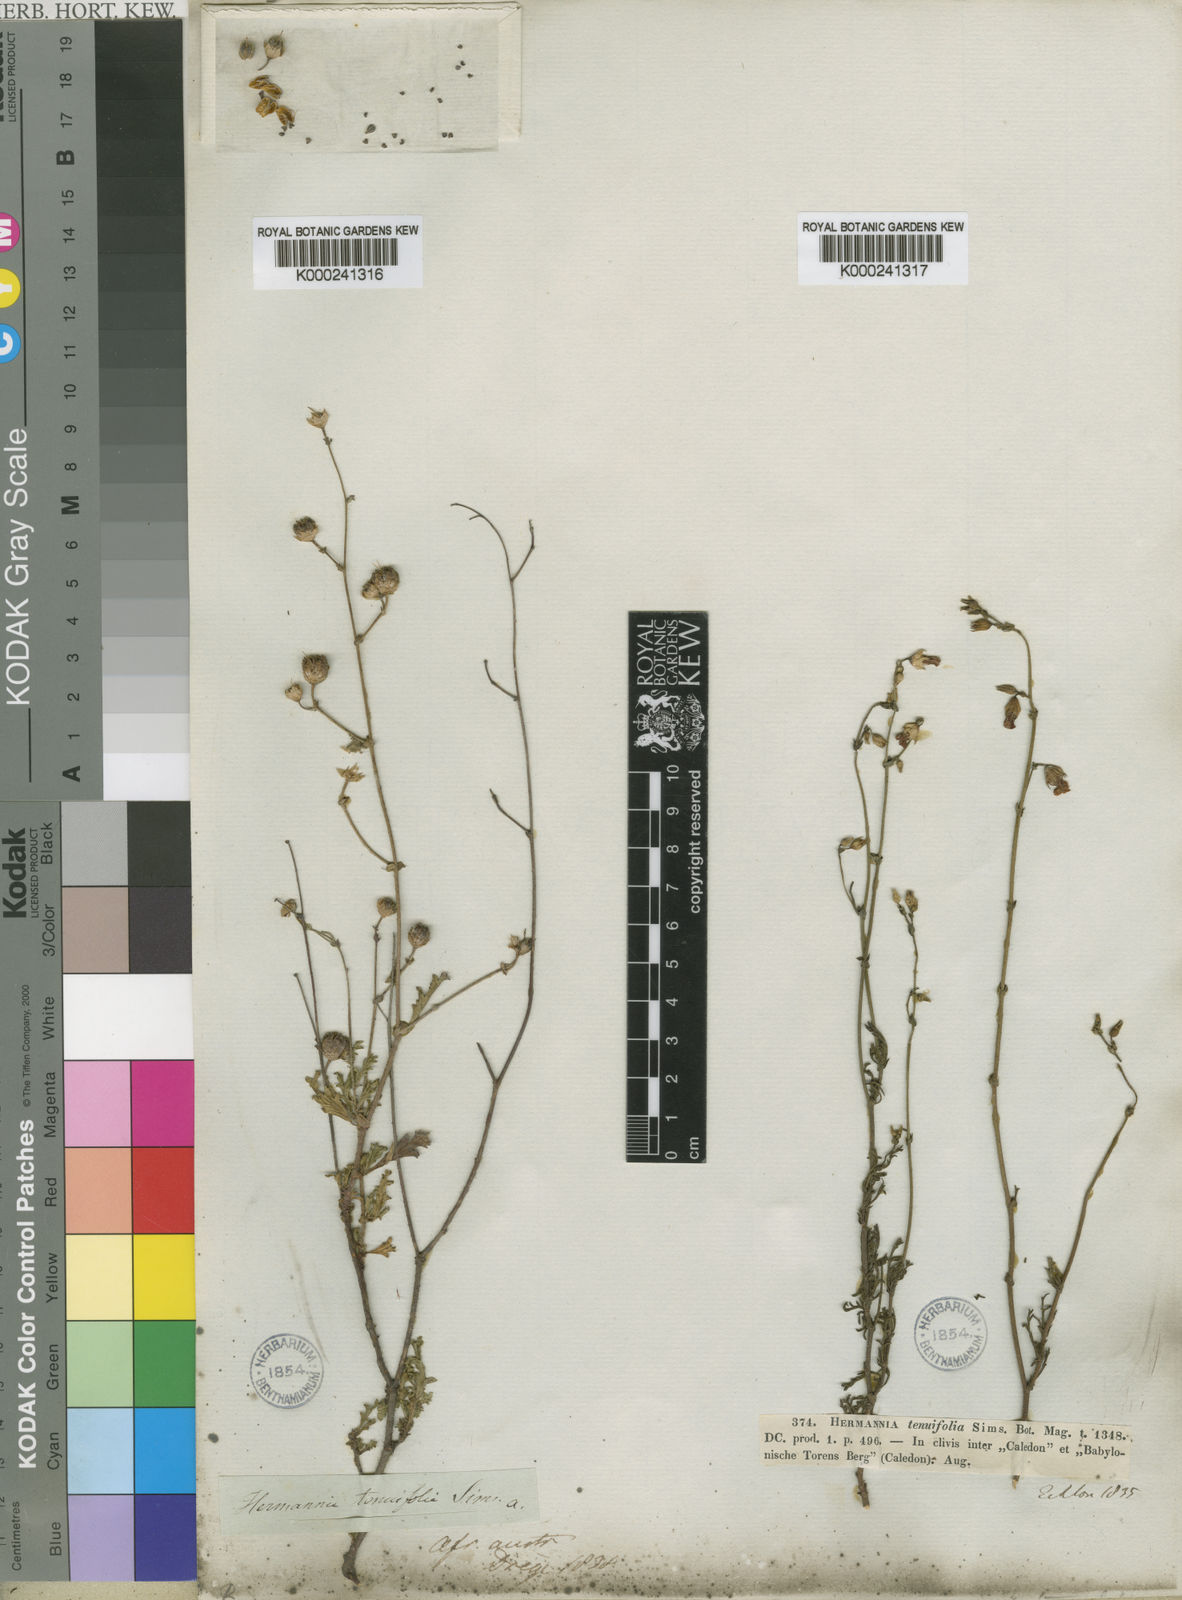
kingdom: Plantae
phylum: Tracheophyta
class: Magnoliopsida
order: Malvales
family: Malvaceae
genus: Hermannia
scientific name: Hermannia confusa
